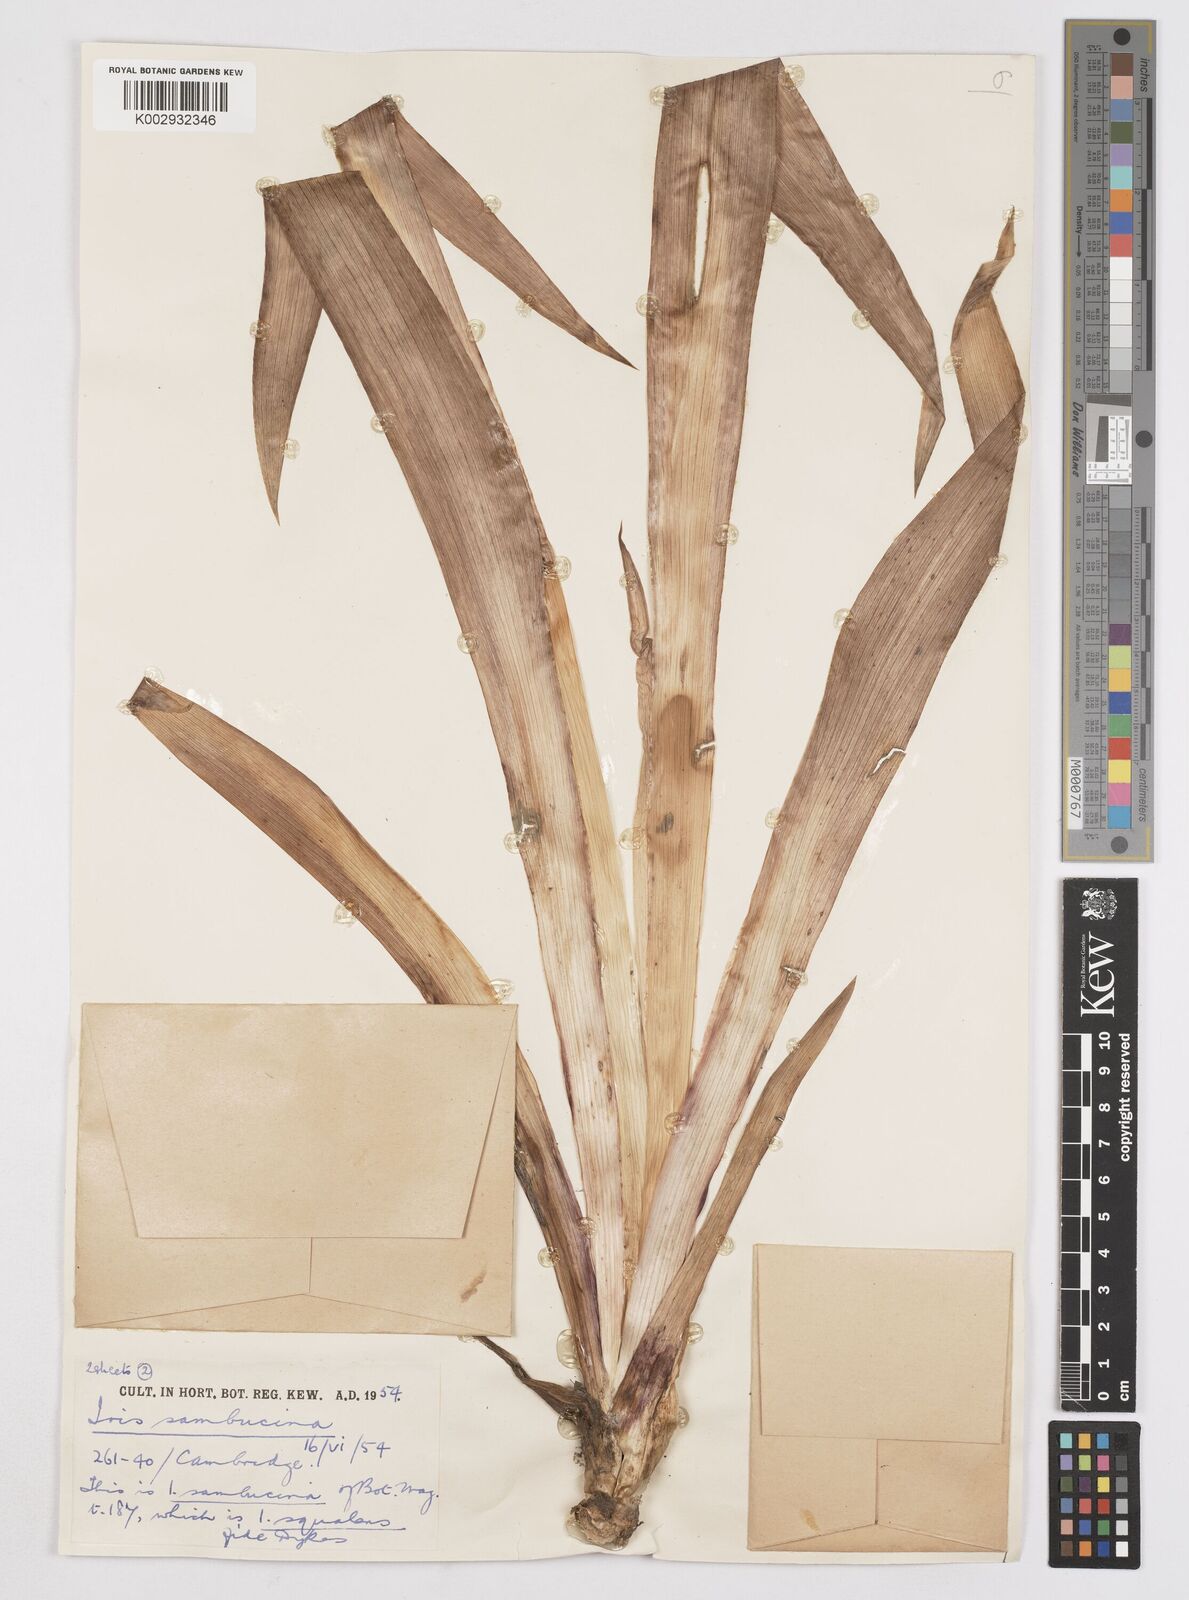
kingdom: Plantae
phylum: Tracheophyta
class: Liliopsida
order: Asparagales
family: Iridaceae
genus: Iris
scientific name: Iris germanica
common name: German iris
